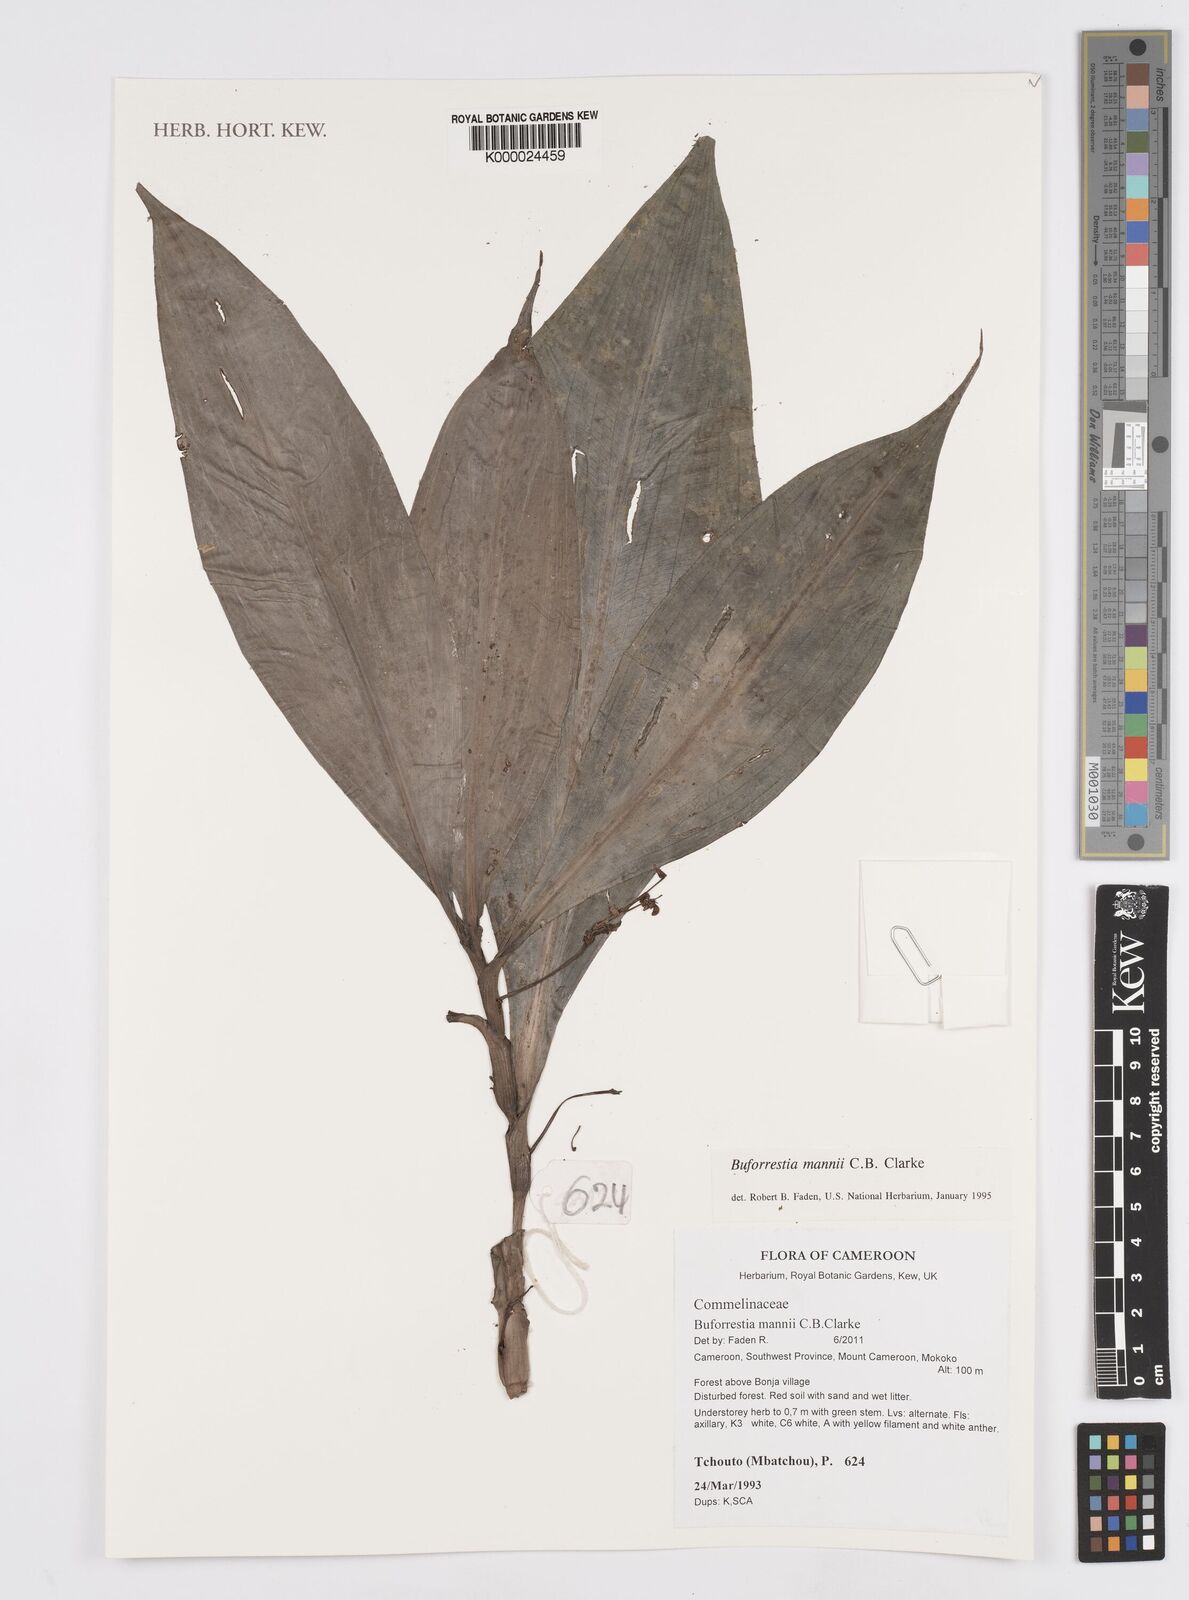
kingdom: Plantae
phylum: Tracheophyta
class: Liliopsida
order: Commelinales
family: Commelinaceae
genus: Buforrestia
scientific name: Buforrestia mannii
